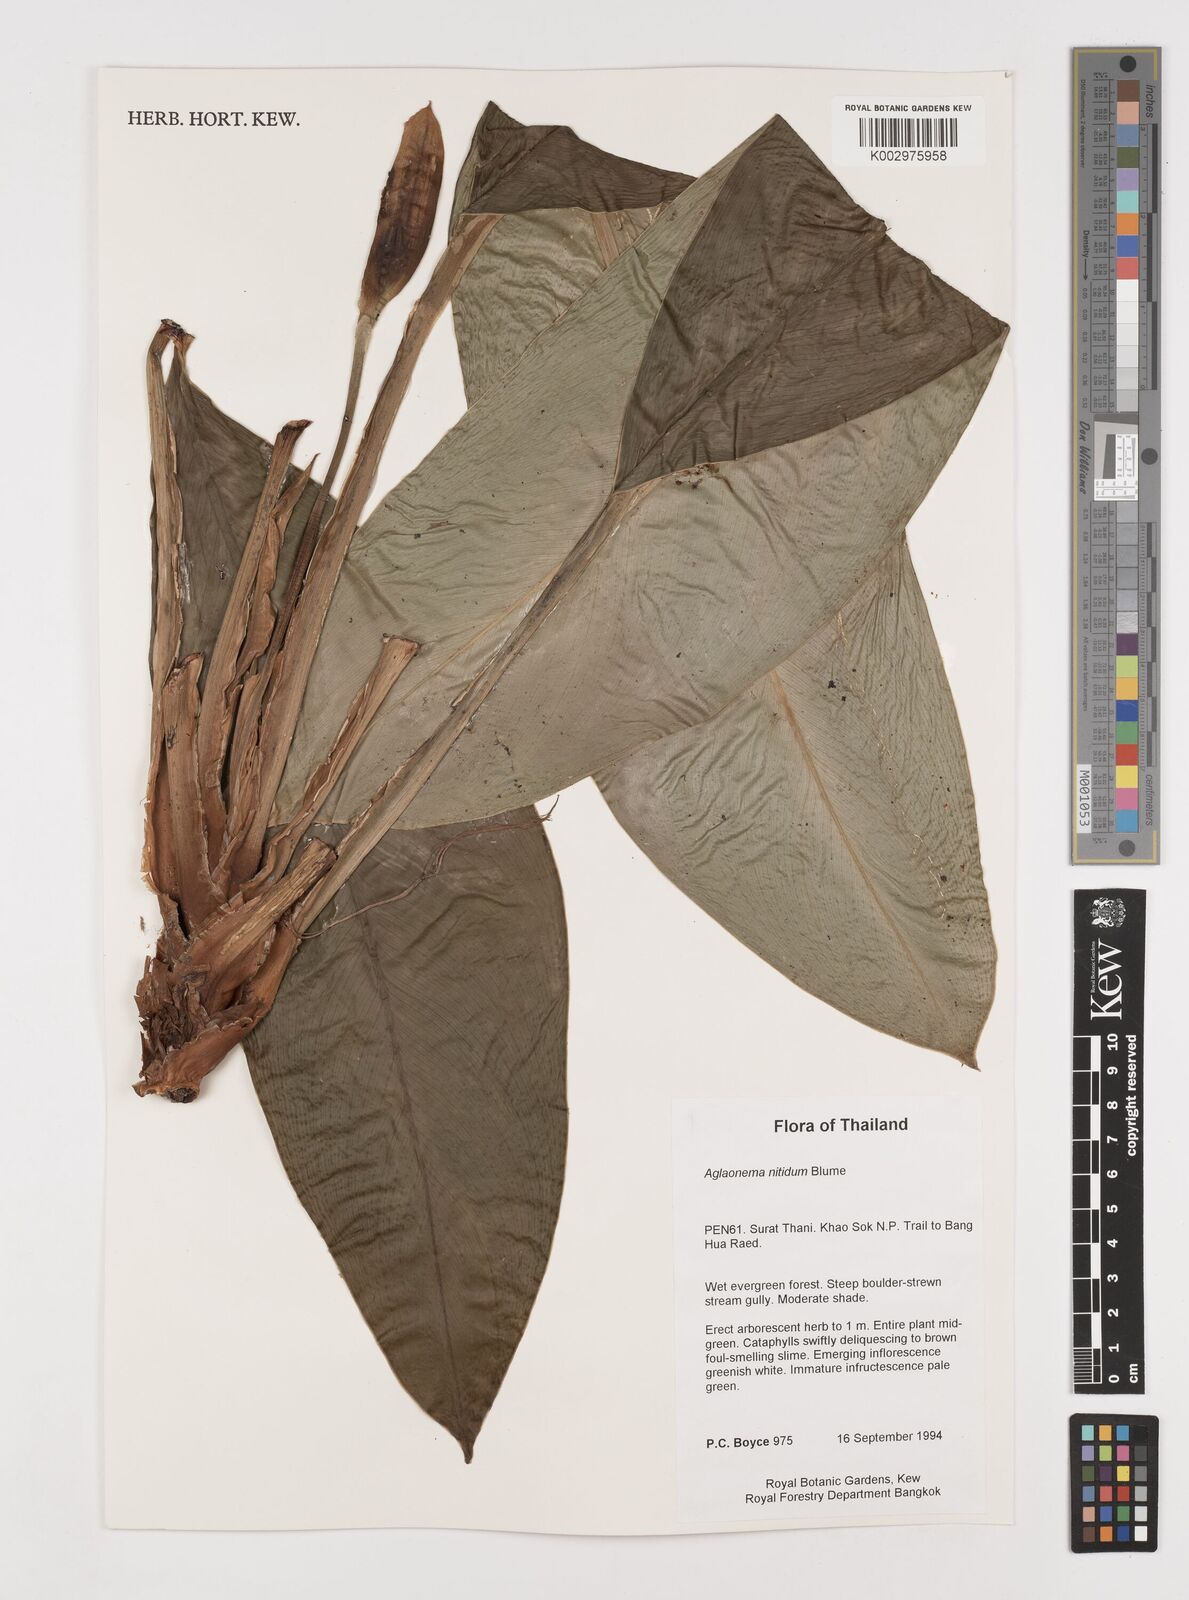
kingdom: Plantae
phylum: Tracheophyta
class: Liliopsida
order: Alismatales
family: Araceae
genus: Aglaonema
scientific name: Aglaonema nitidum
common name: Aglaonema aroid
